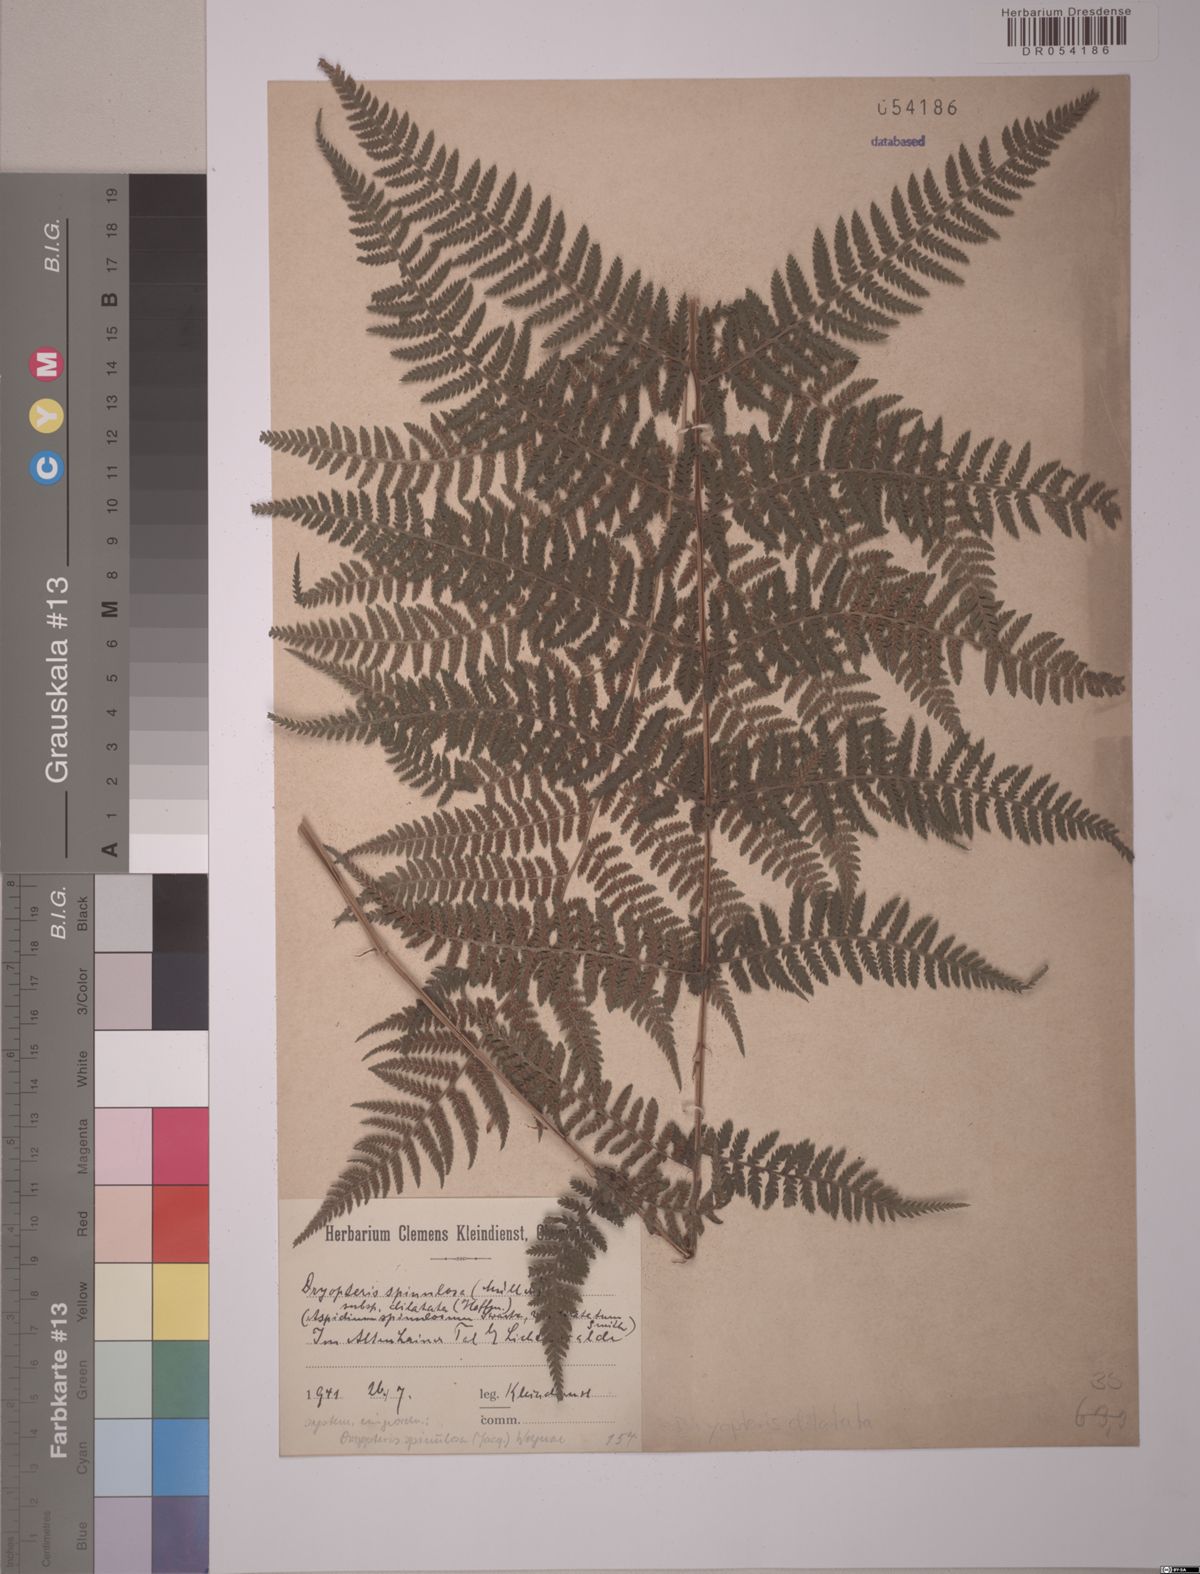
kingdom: Plantae
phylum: Tracheophyta
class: Polypodiopsida
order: Polypodiales
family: Dryopteridaceae
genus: Dryopteris
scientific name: Dryopteris dilatata
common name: Broad buckler-fern
